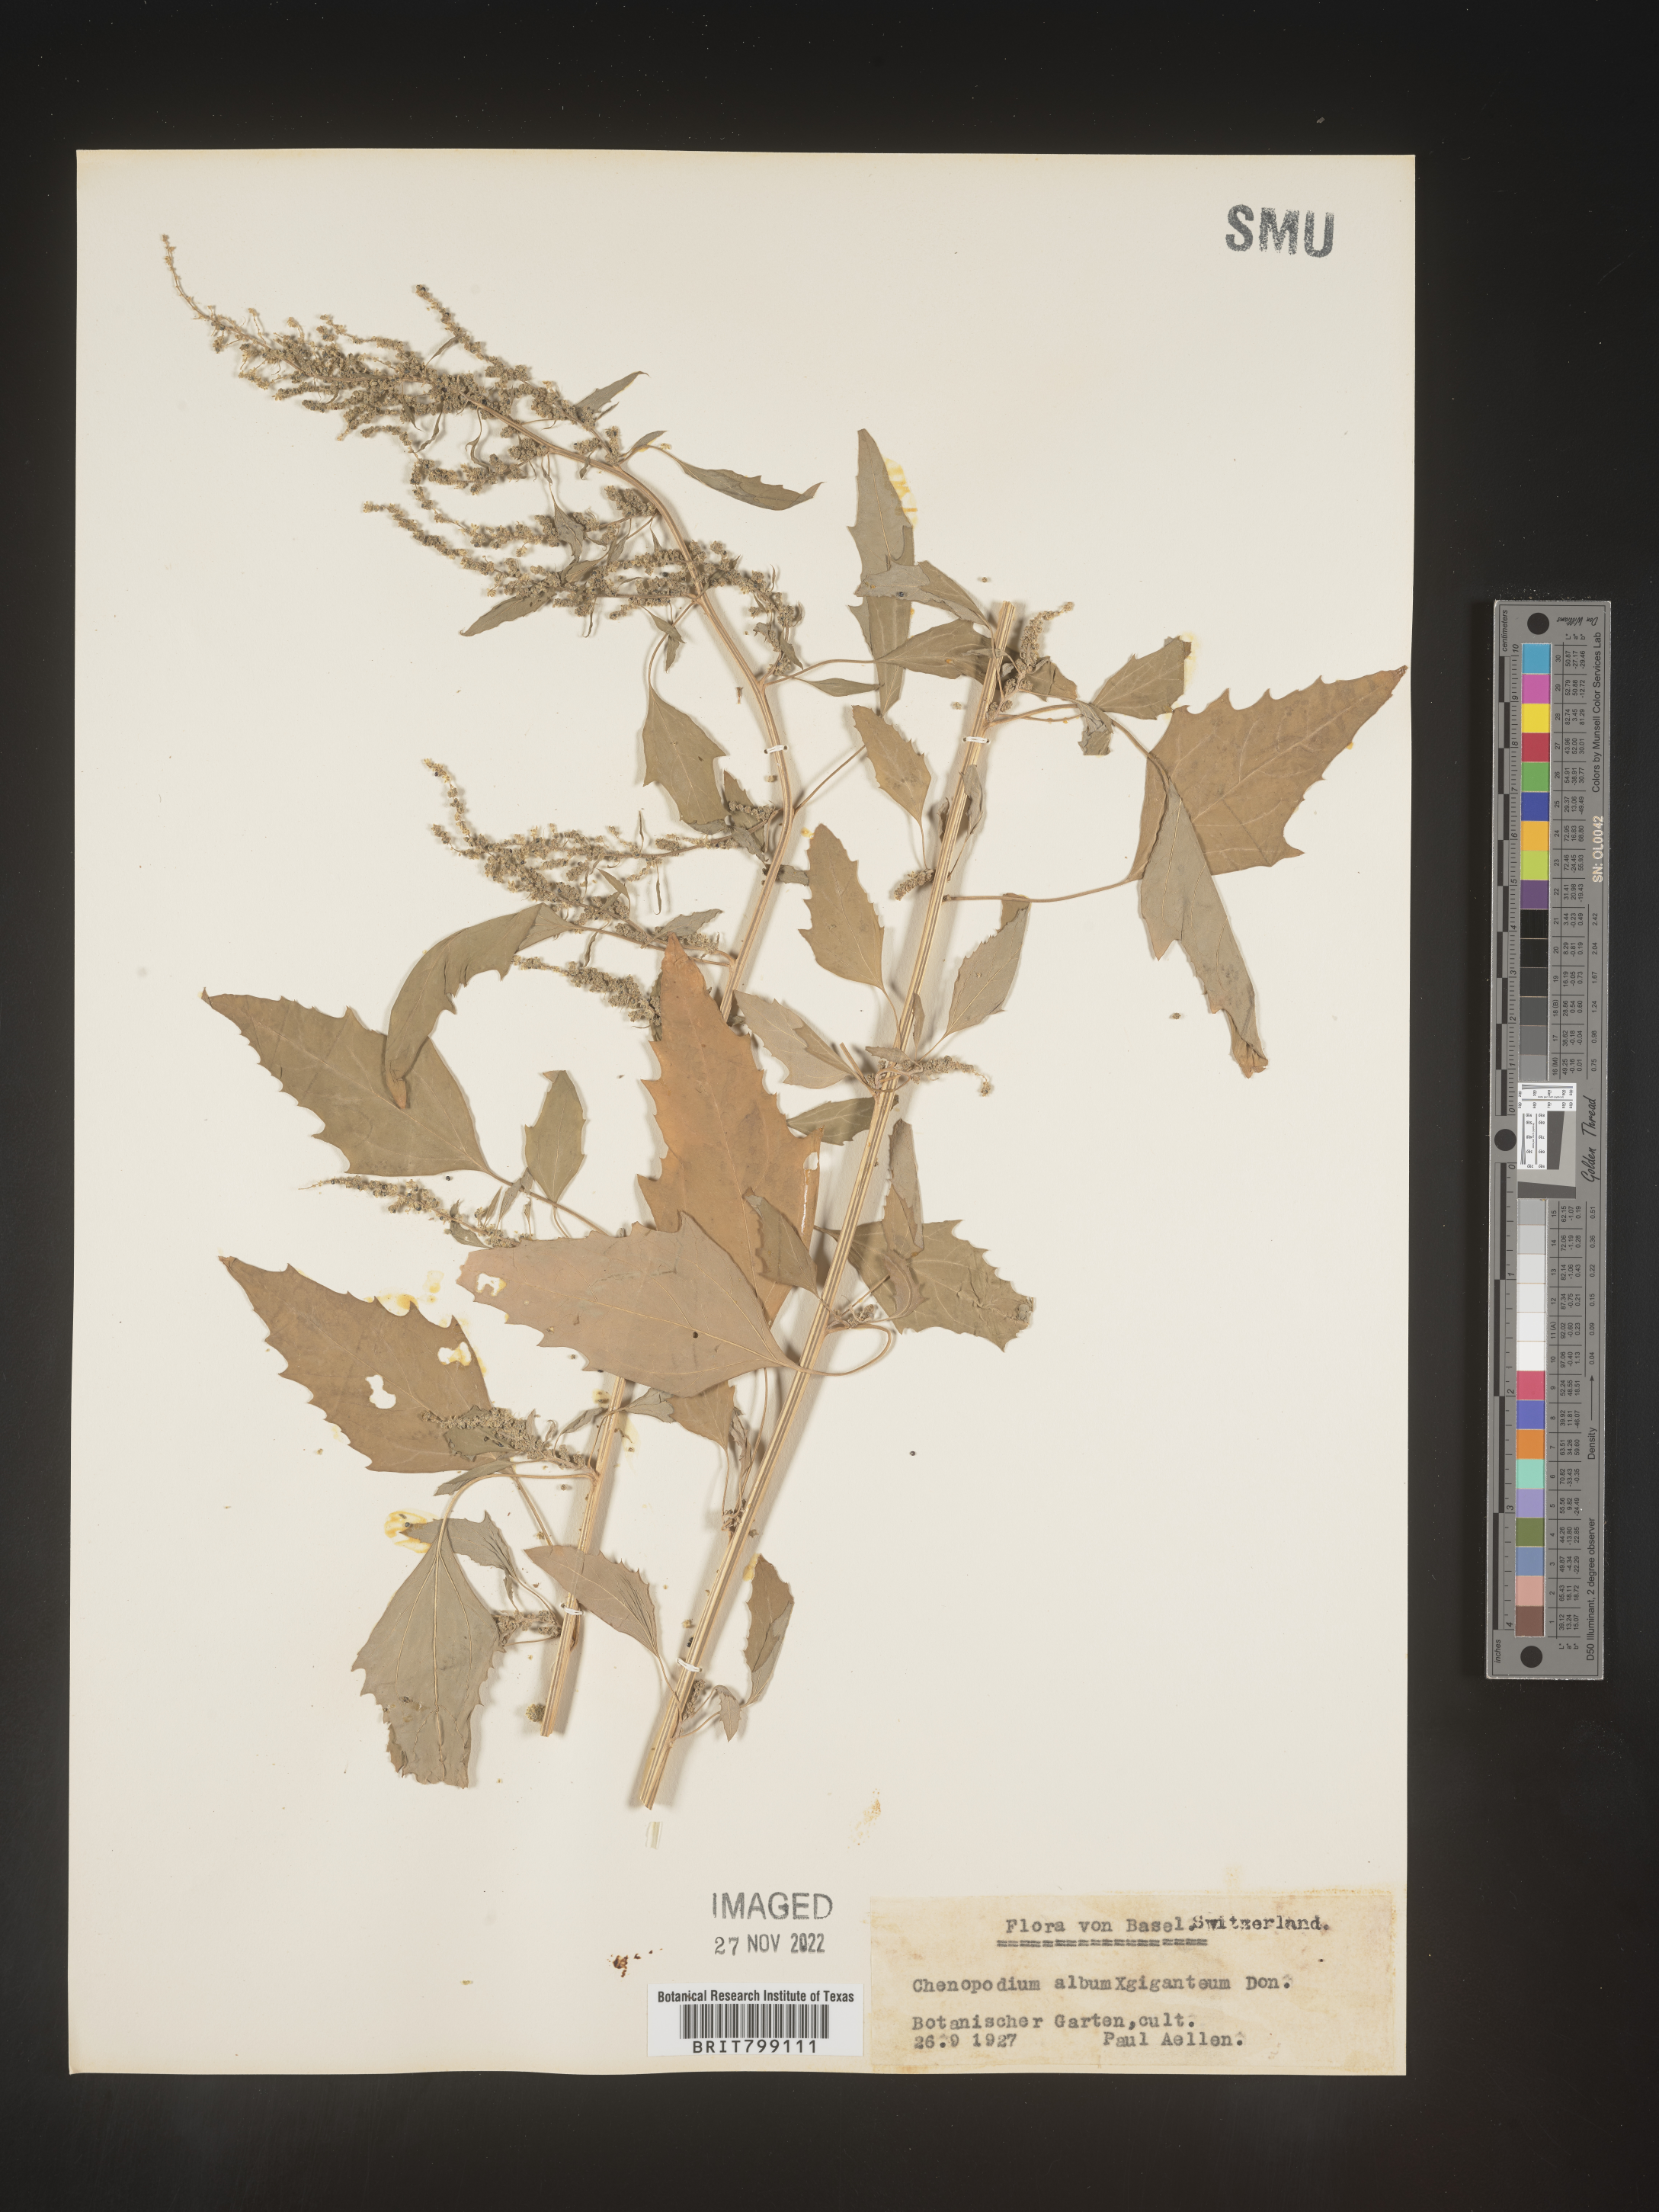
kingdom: Plantae
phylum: Tracheophyta
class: Magnoliopsida
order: Caryophyllales
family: Amaranthaceae
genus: Chenopodium
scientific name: Chenopodium album
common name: Fat-hen
